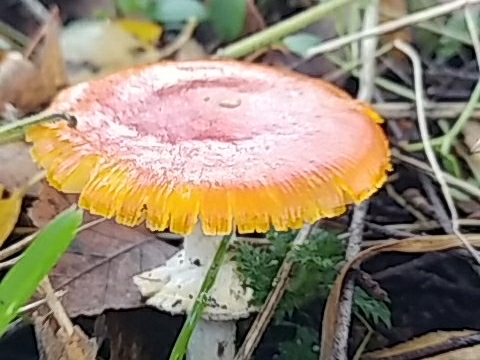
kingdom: Fungi
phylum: Basidiomycota
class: Agaricomycetes
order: Agaricales
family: Amanitaceae
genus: Amanita
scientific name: Amanita muscaria
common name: rød fluesvamp
